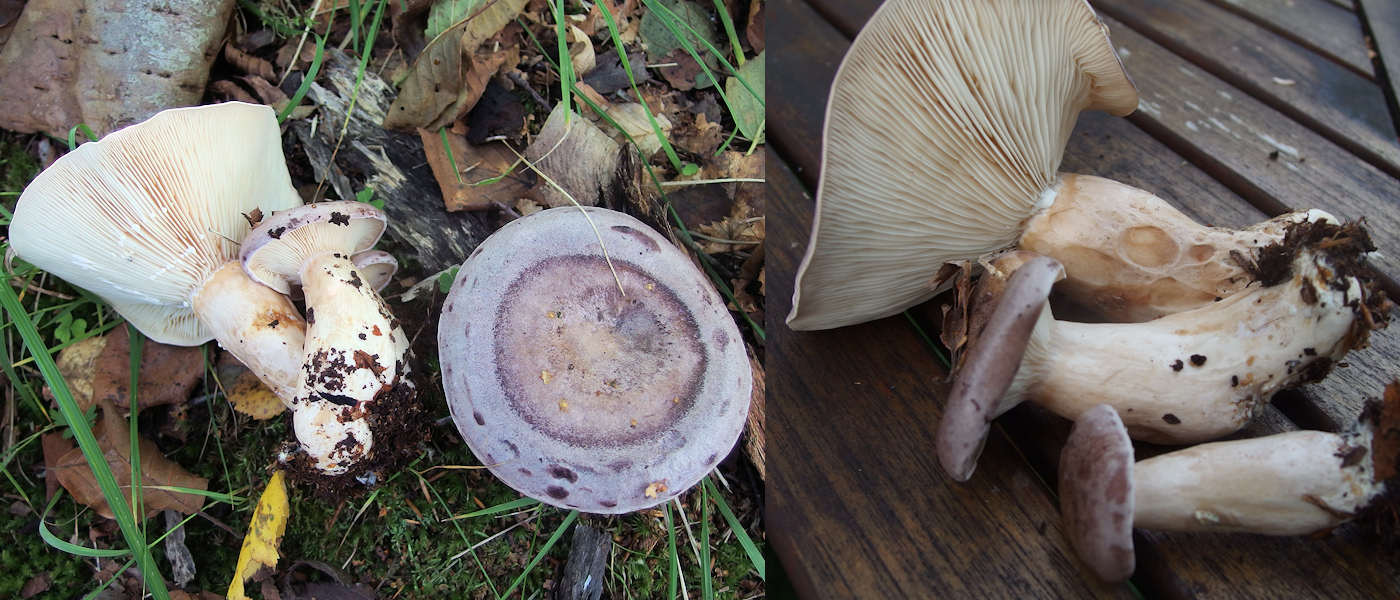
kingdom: Fungi
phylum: Basidiomycota
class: Agaricomycetes
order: Russulales
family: Russulaceae
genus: Lactarius
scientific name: Lactarius trivialis
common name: nordisk mælkehat
